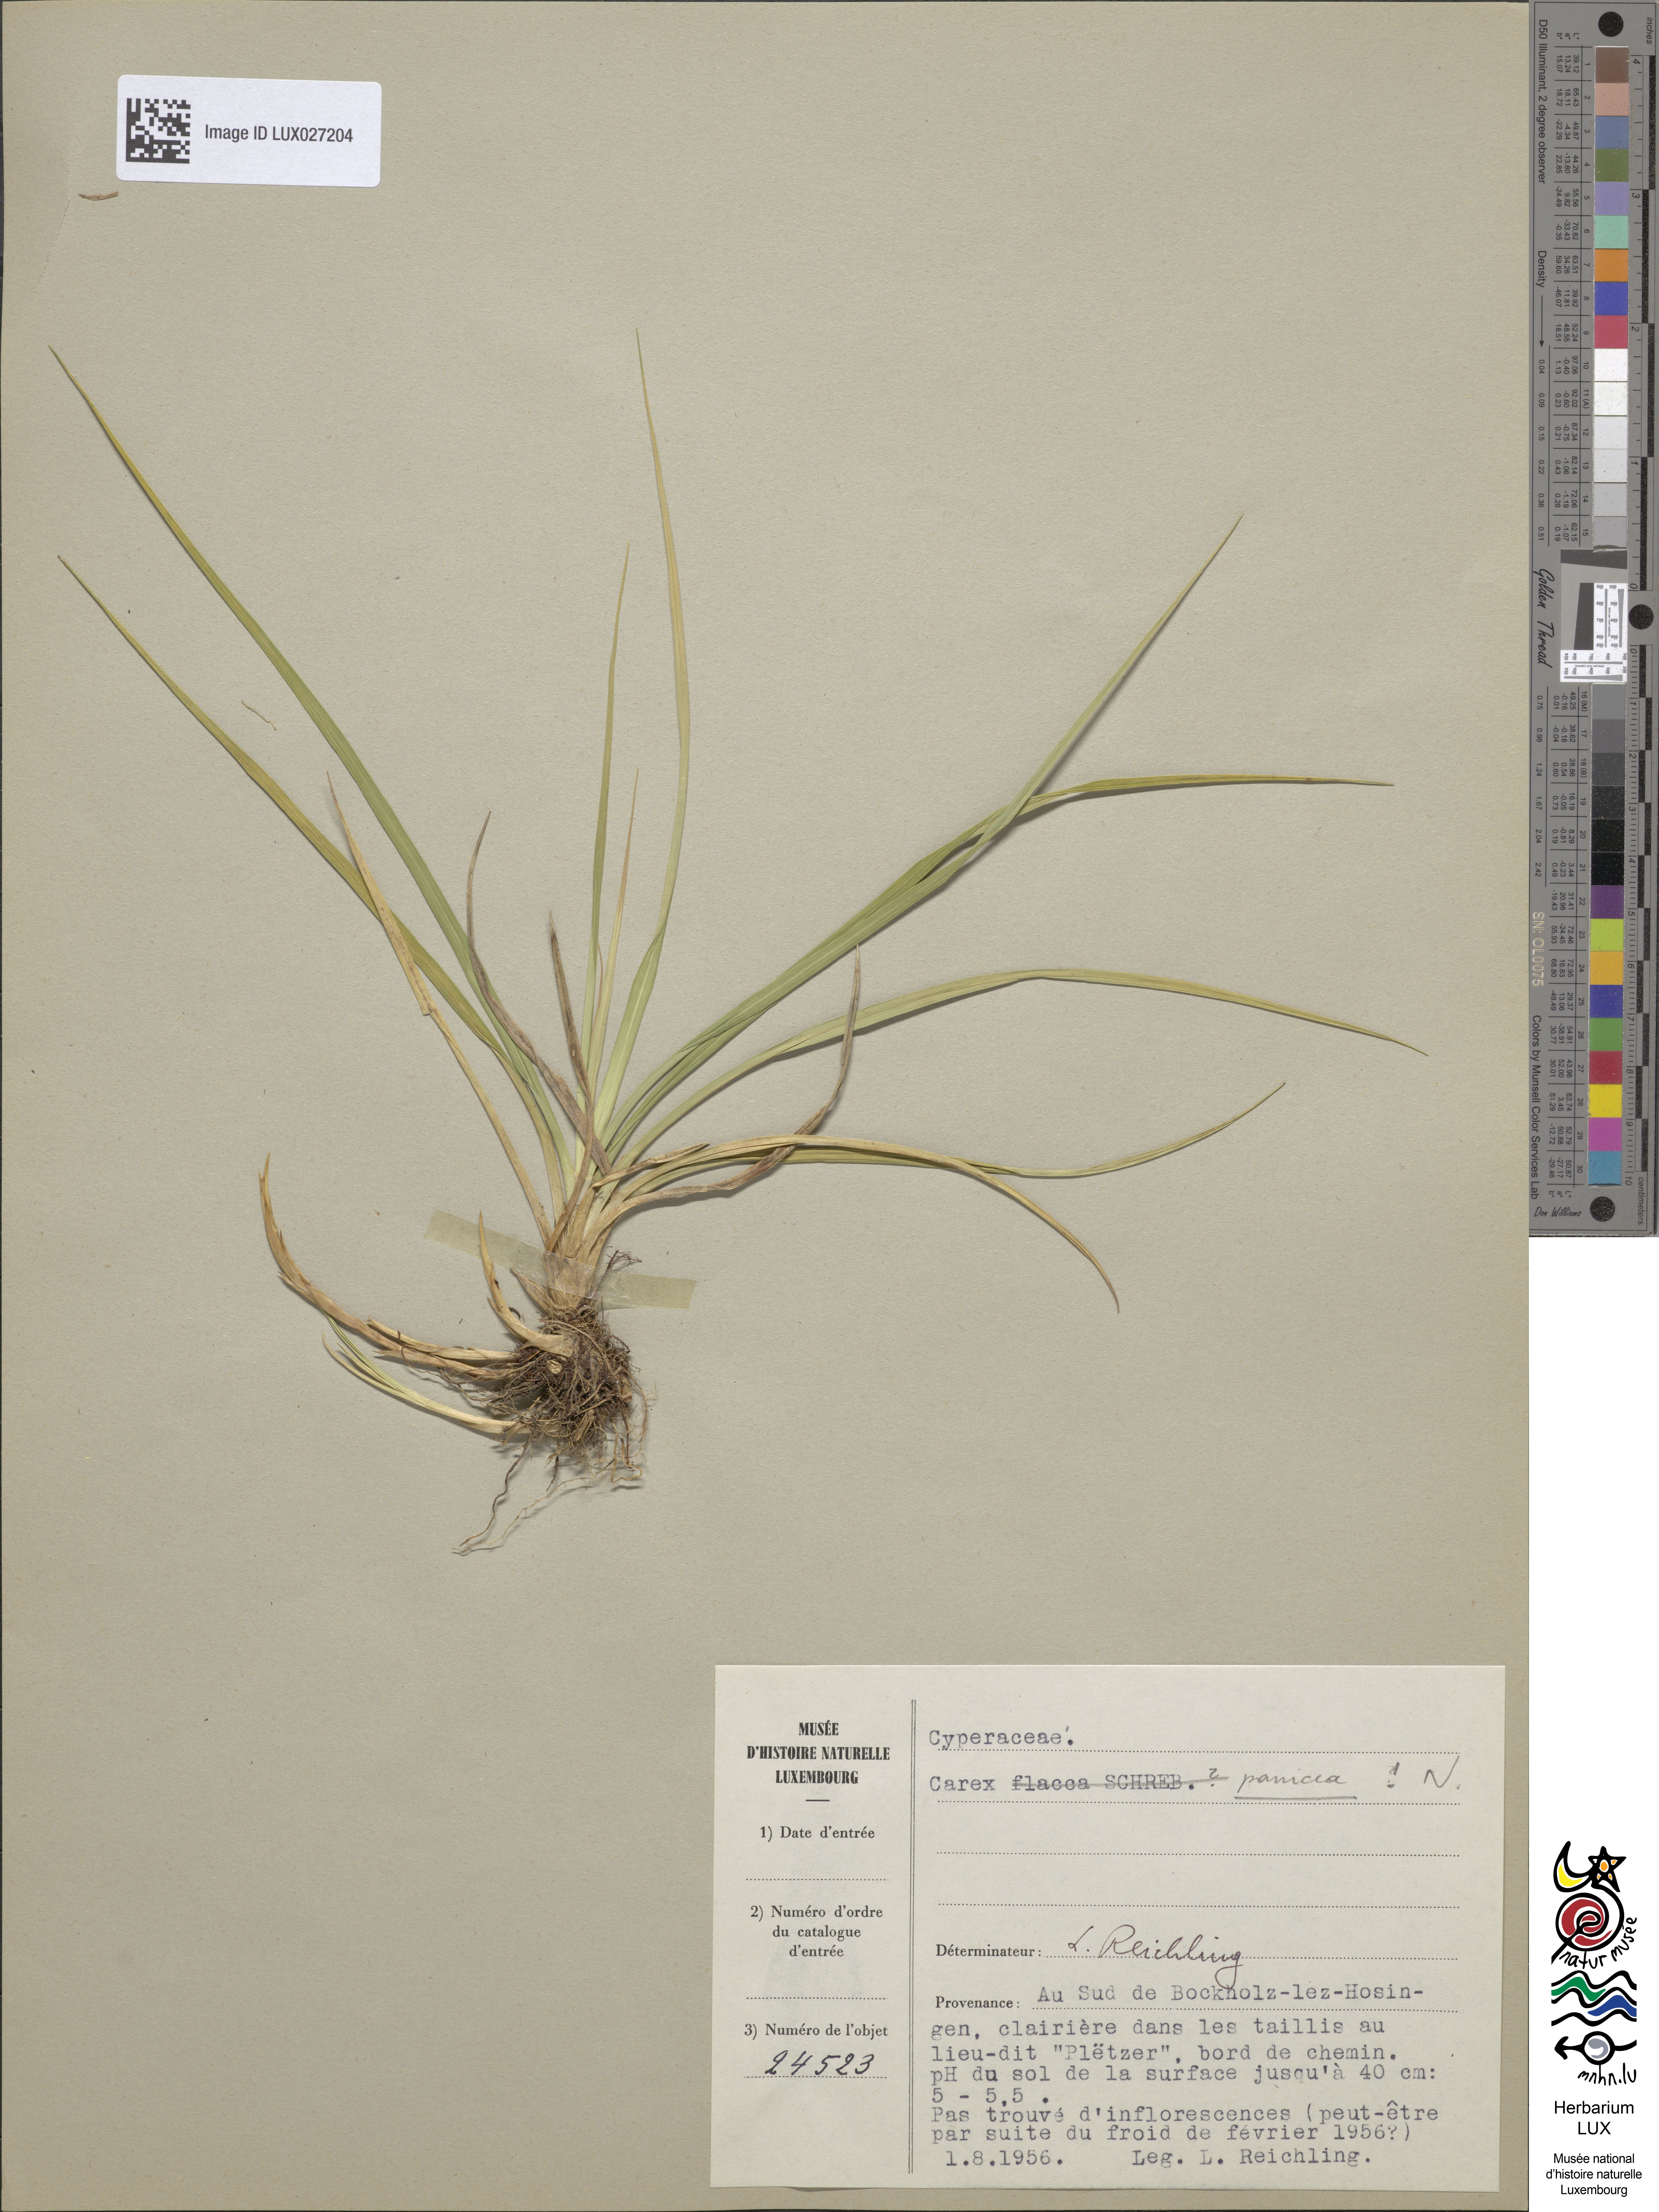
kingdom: Plantae
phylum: Tracheophyta
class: Liliopsida
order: Poales
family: Cyperaceae
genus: Carex
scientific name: Carex panicea
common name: Carnation sedge
